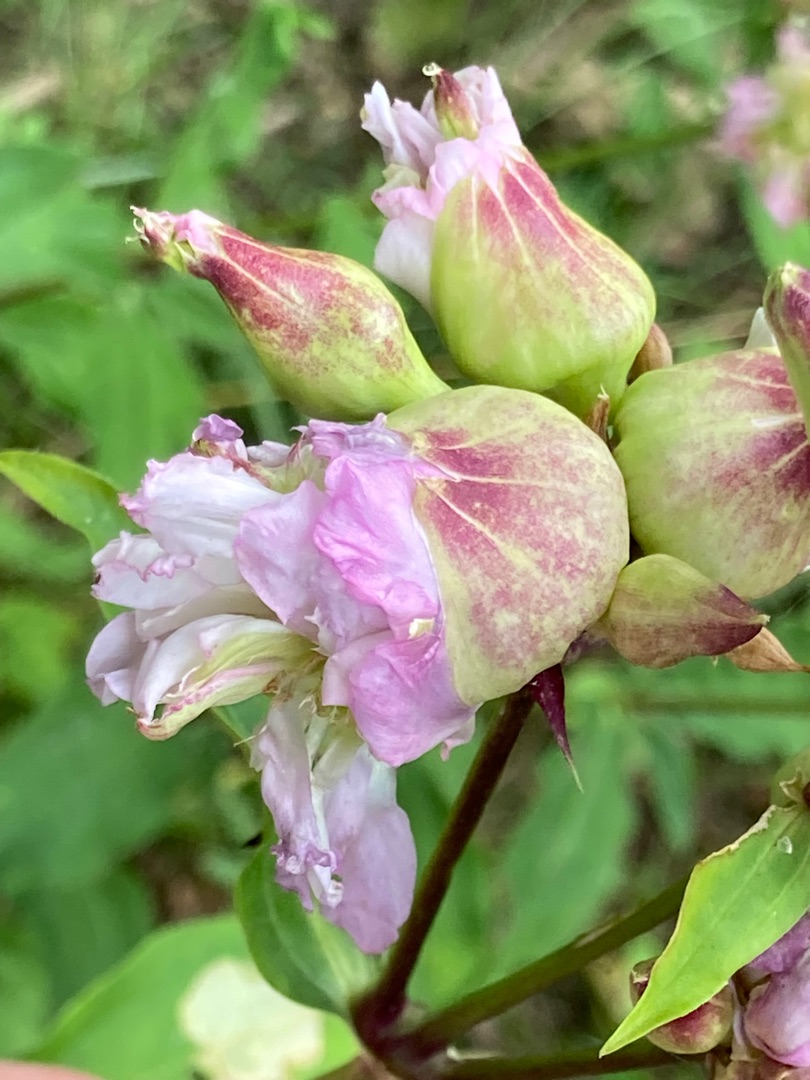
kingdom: Plantae
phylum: Tracheophyta
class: Magnoliopsida
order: Caryophyllales
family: Caryophyllaceae
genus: Saponaria
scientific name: Saponaria officinalis
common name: Sæbeurt
